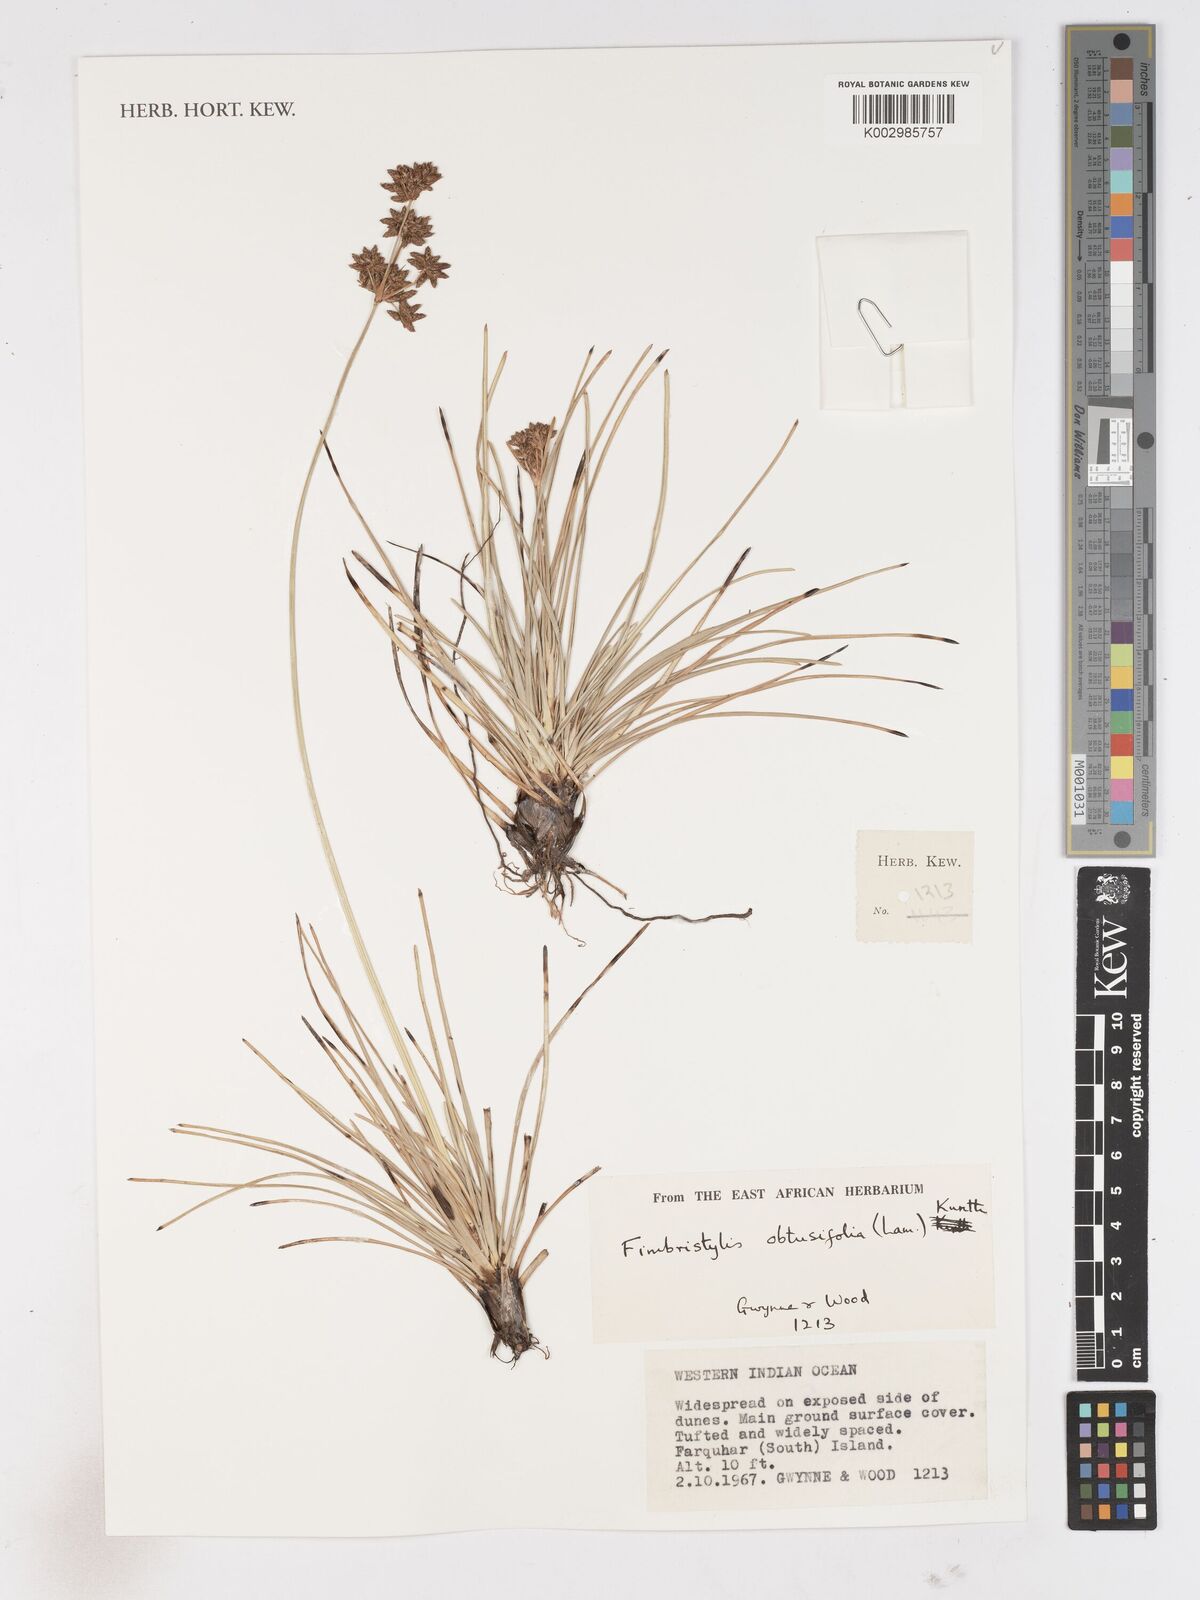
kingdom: Plantae
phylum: Tracheophyta
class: Liliopsida
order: Poales
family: Cyperaceae
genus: Fimbristylis
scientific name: Fimbristylis cymosa
